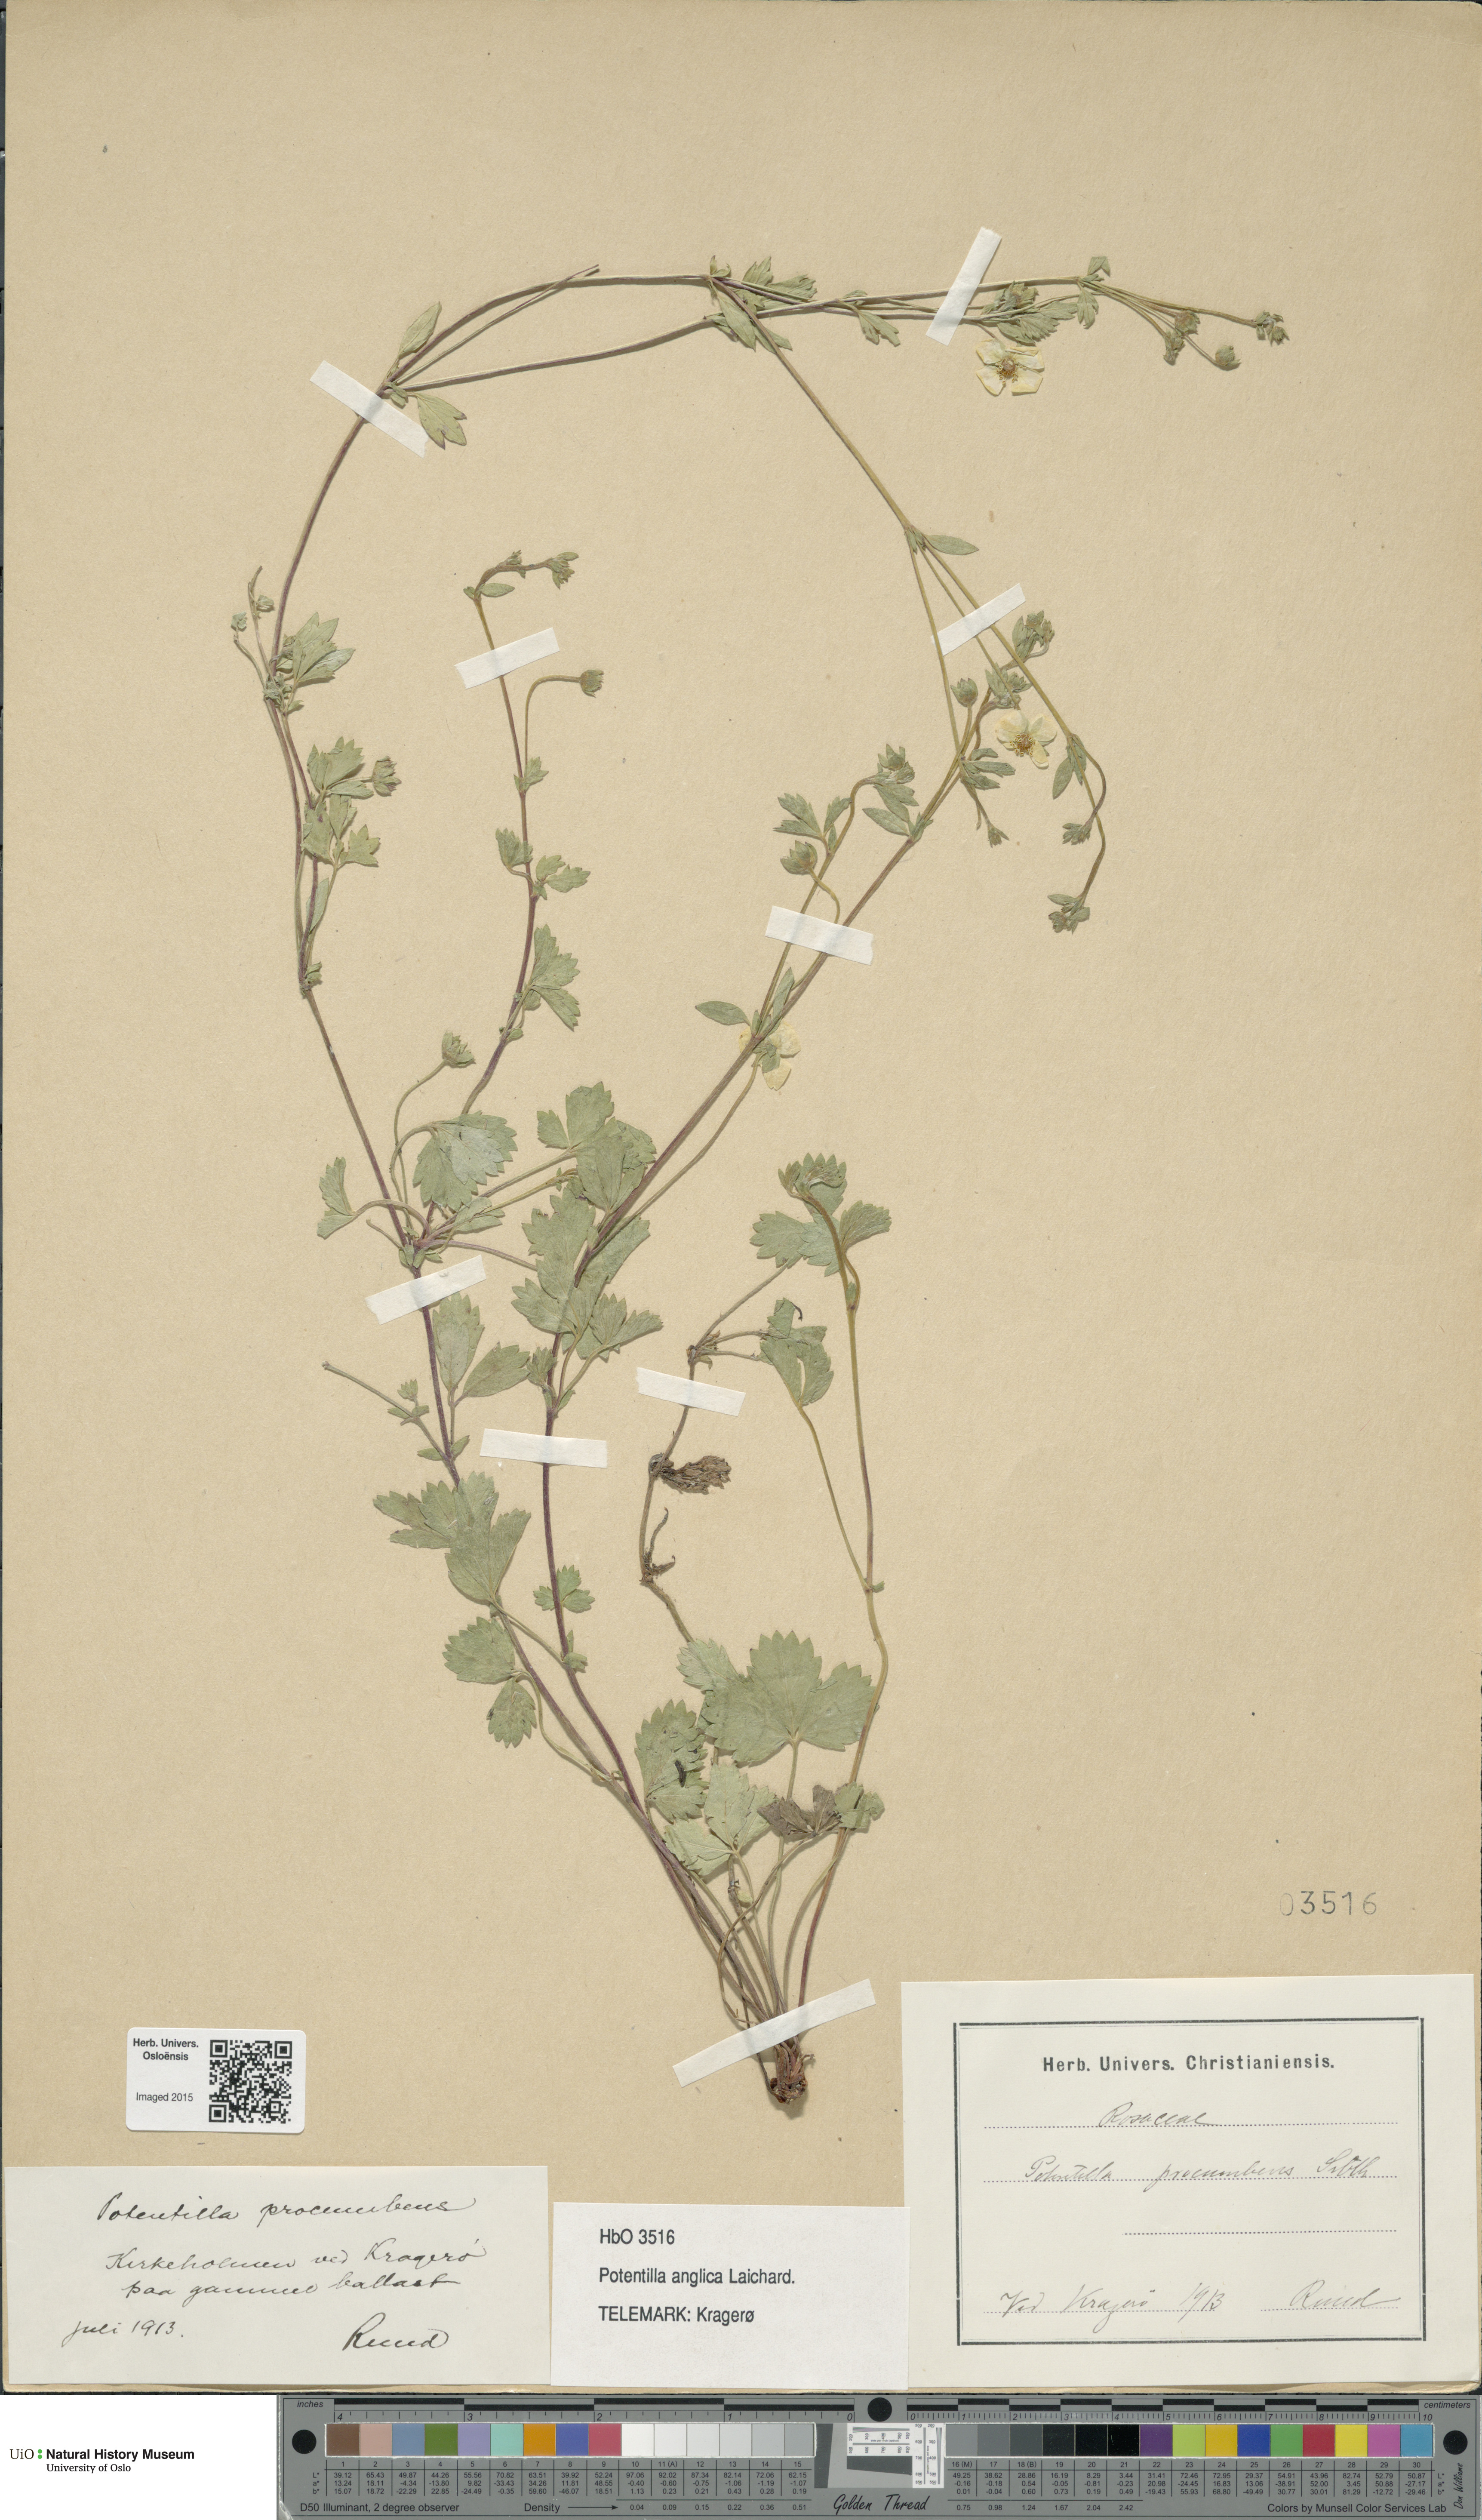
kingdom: Plantae
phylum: Tracheophyta
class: Magnoliopsida
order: Rosales
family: Rosaceae
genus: Potentilla
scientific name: Potentilla anglica
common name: Trailing tormentil
